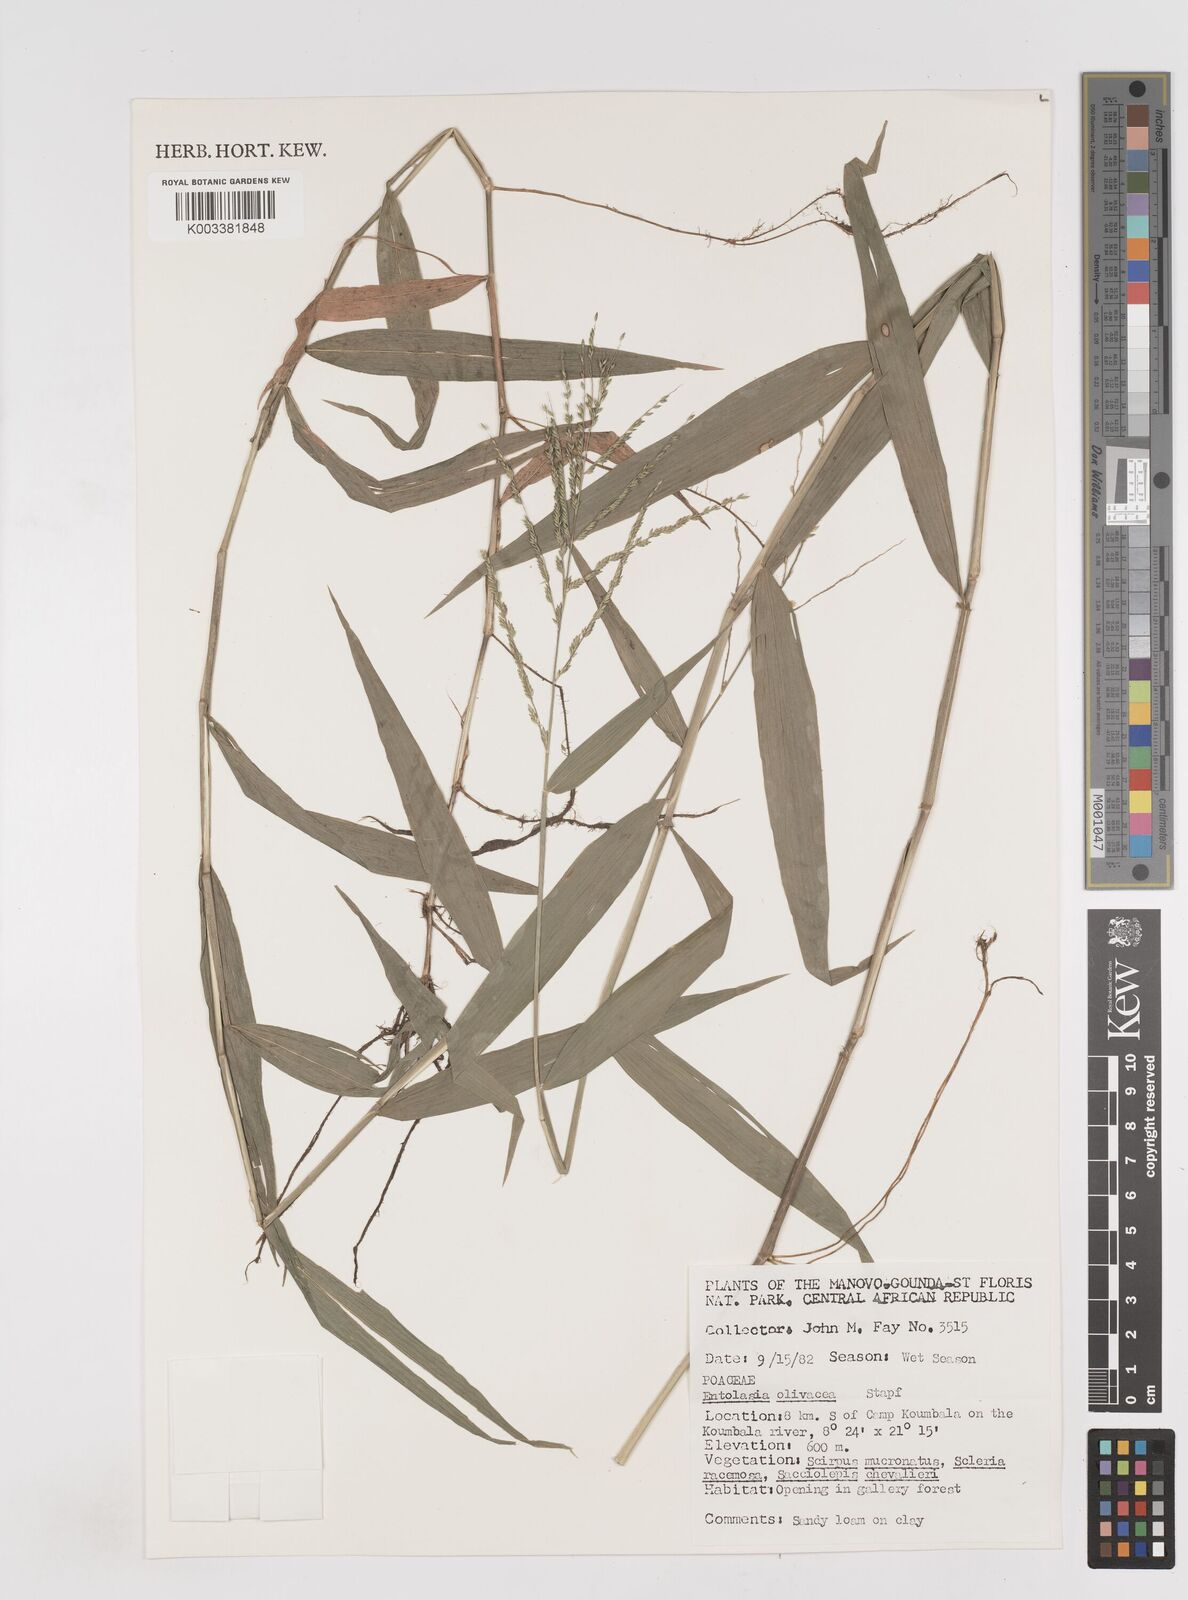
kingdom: Plantae
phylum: Tracheophyta
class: Liliopsida
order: Poales
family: Poaceae
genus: Entolasia
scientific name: Entolasia olivacea
